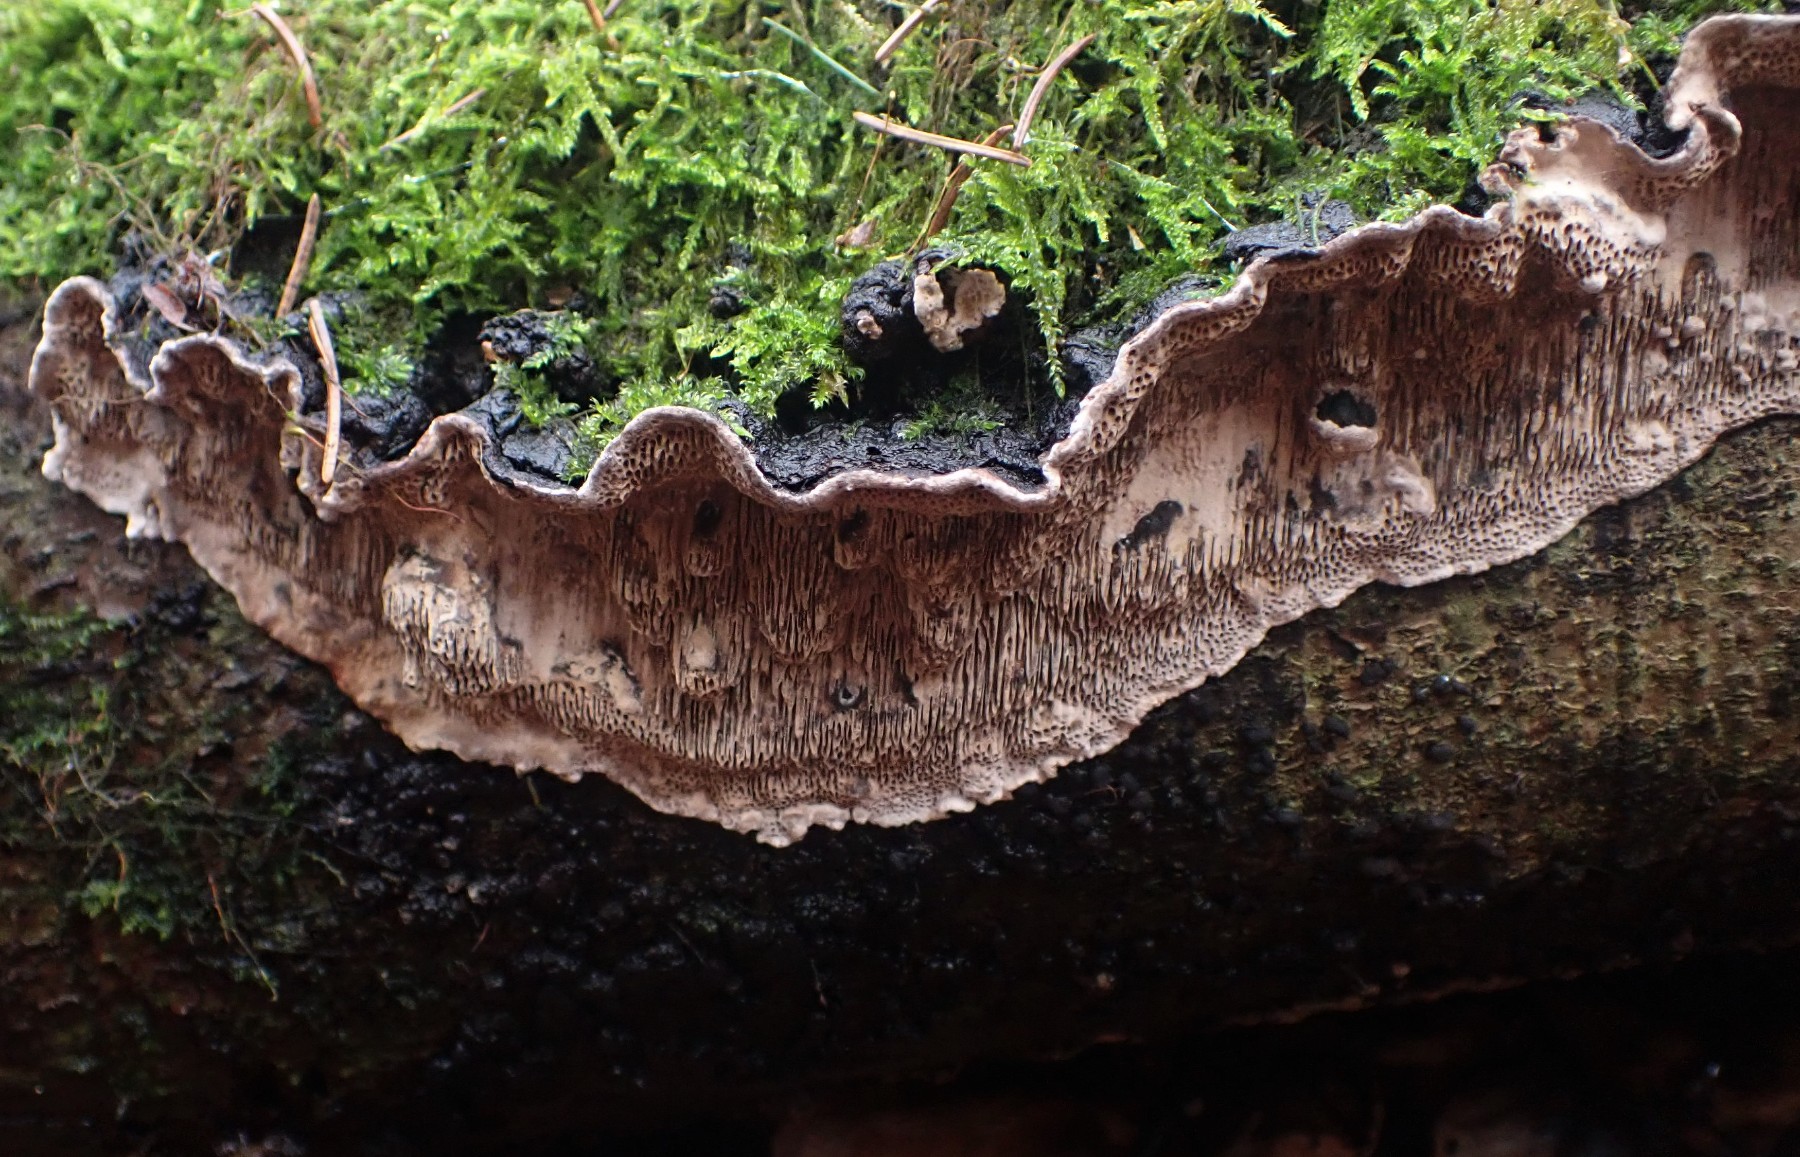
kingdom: Fungi
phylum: Basidiomycota
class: Agaricomycetes
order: Polyporales
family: Polyporaceae
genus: Podofomes
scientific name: Podofomes mollis
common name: blød begporesvamp
